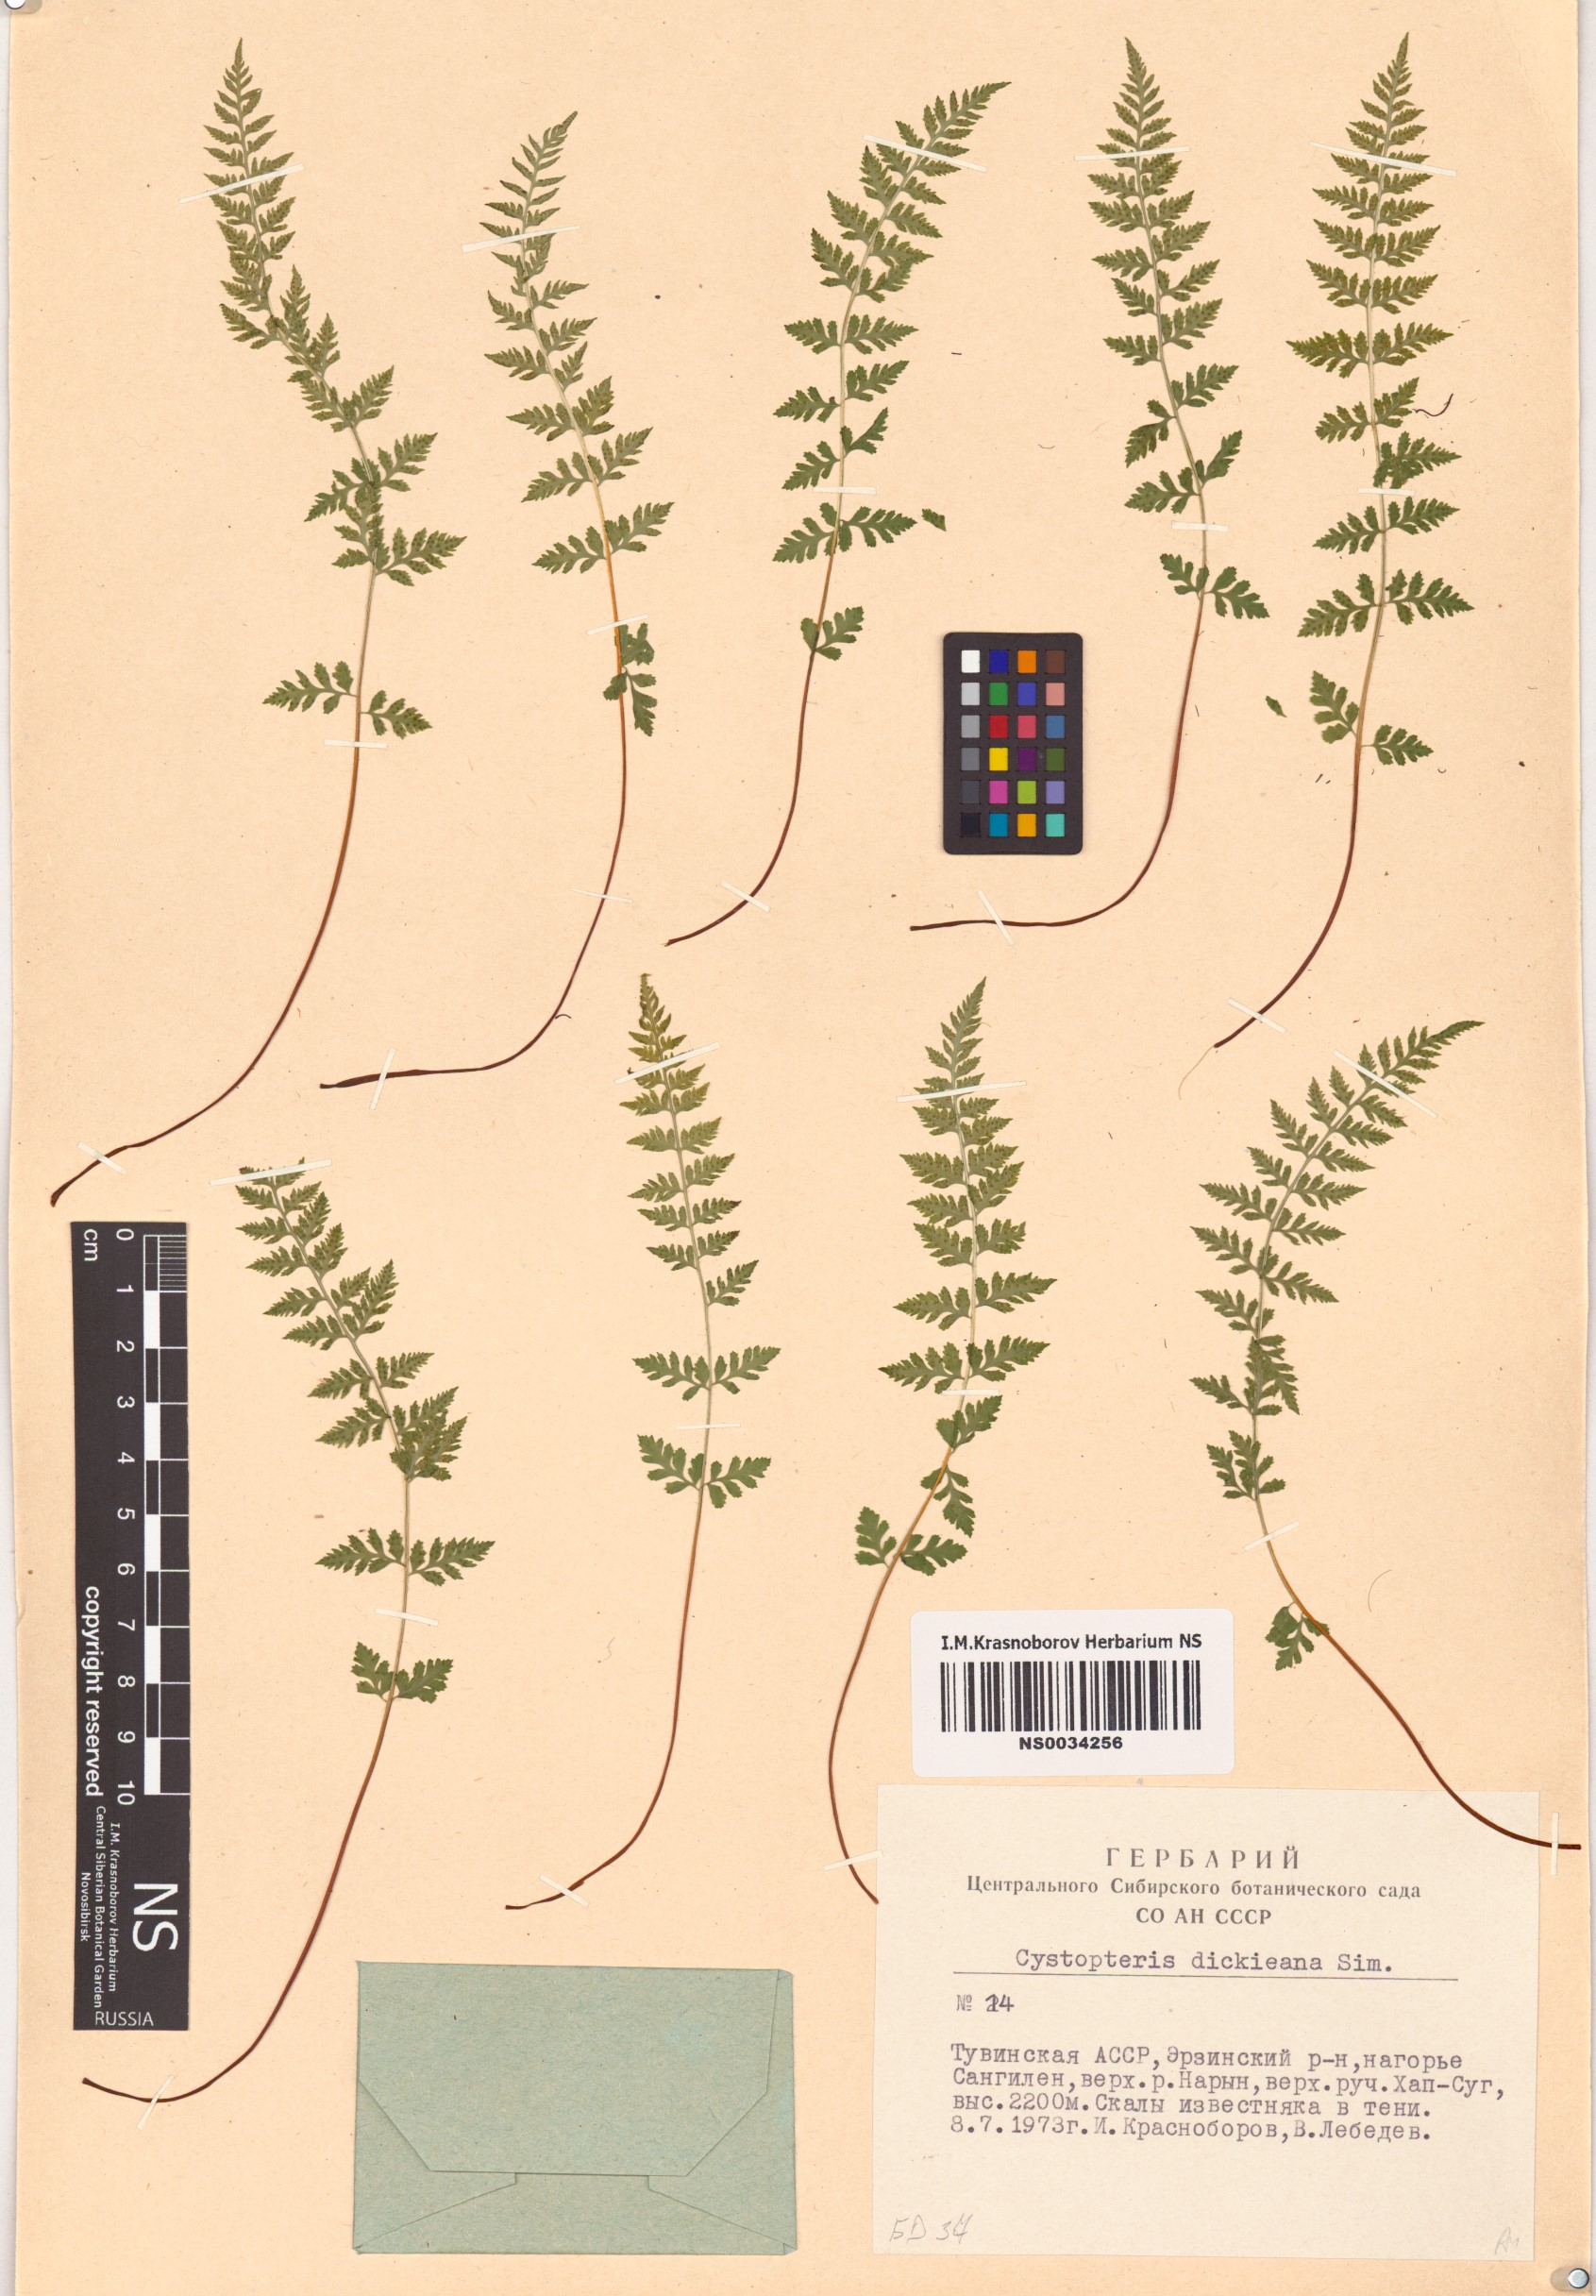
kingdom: Plantae
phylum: Tracheophyta
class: Polypodiopsida
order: Polypodiales
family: Cystopteridaceae
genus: Cystopteris
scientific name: Cystopteris dickieana
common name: Dickie's bladder-fern
